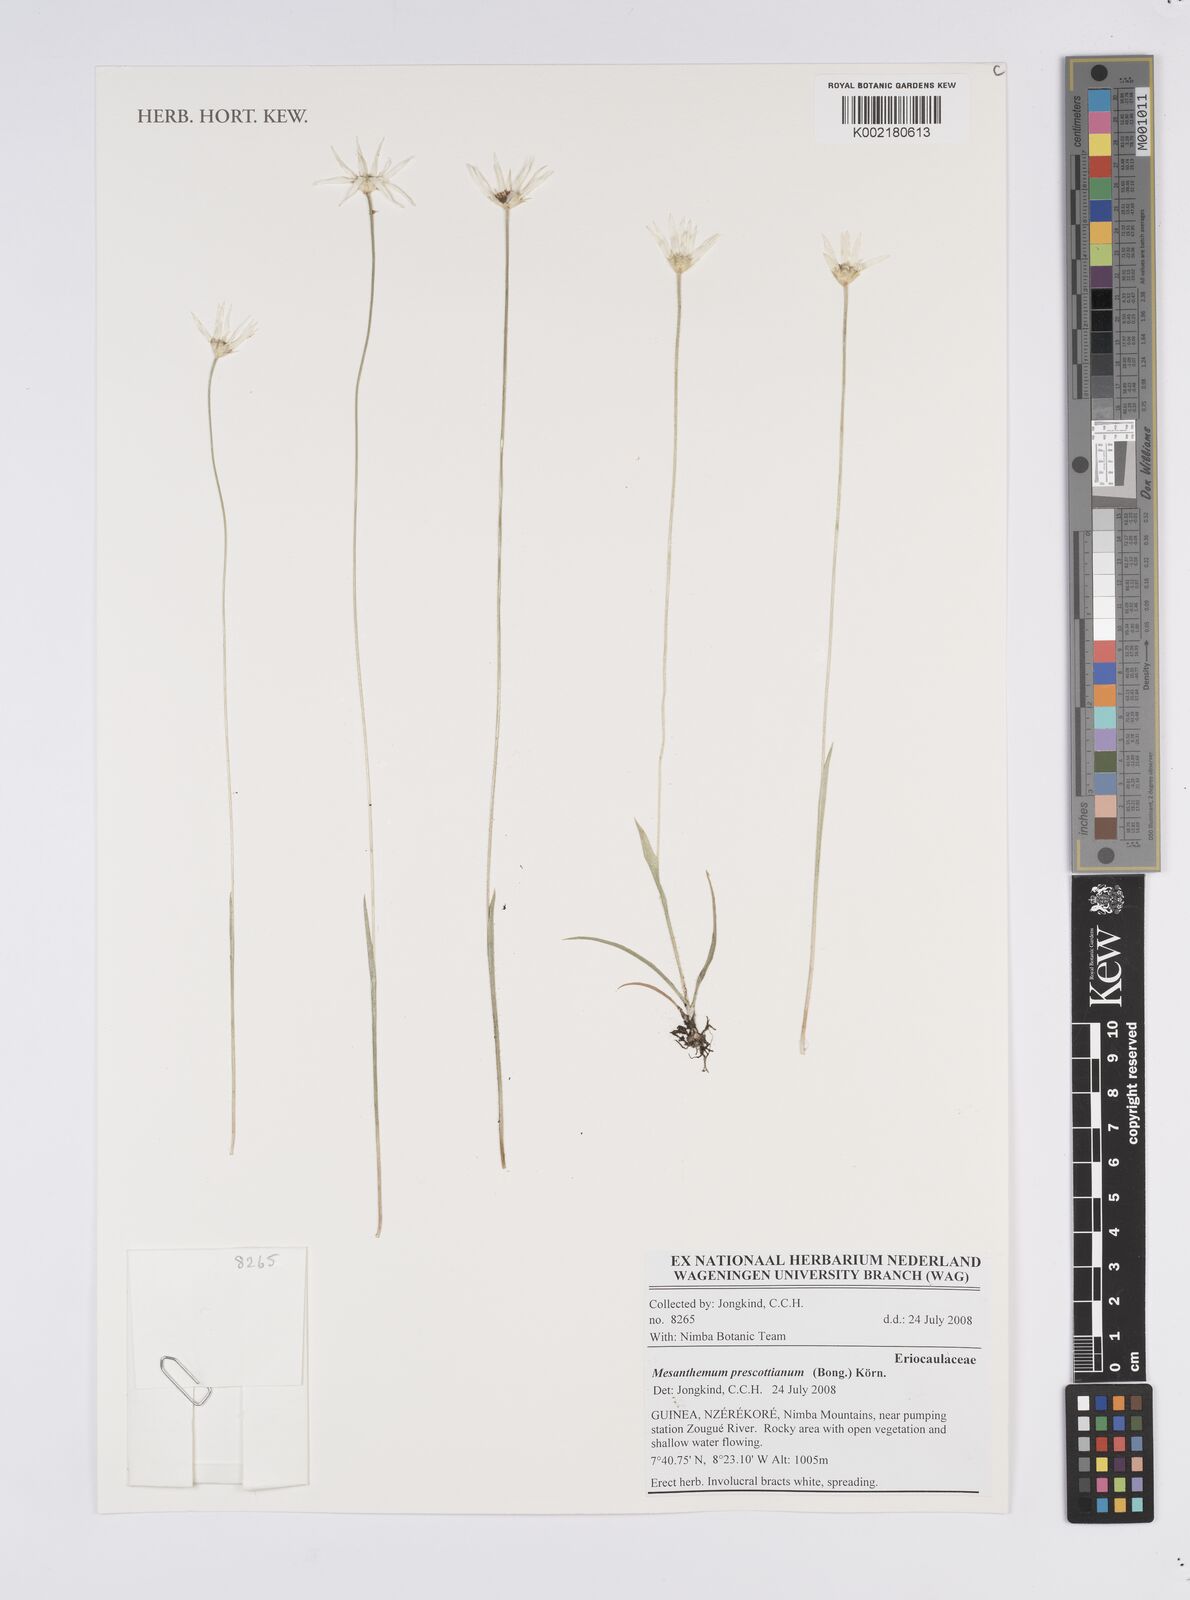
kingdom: Plantae
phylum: Tracheophyta
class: Liliopsida
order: Poales
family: Eriocaulaceae
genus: Mesanthemum
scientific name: Mesanthemum prescottianum
